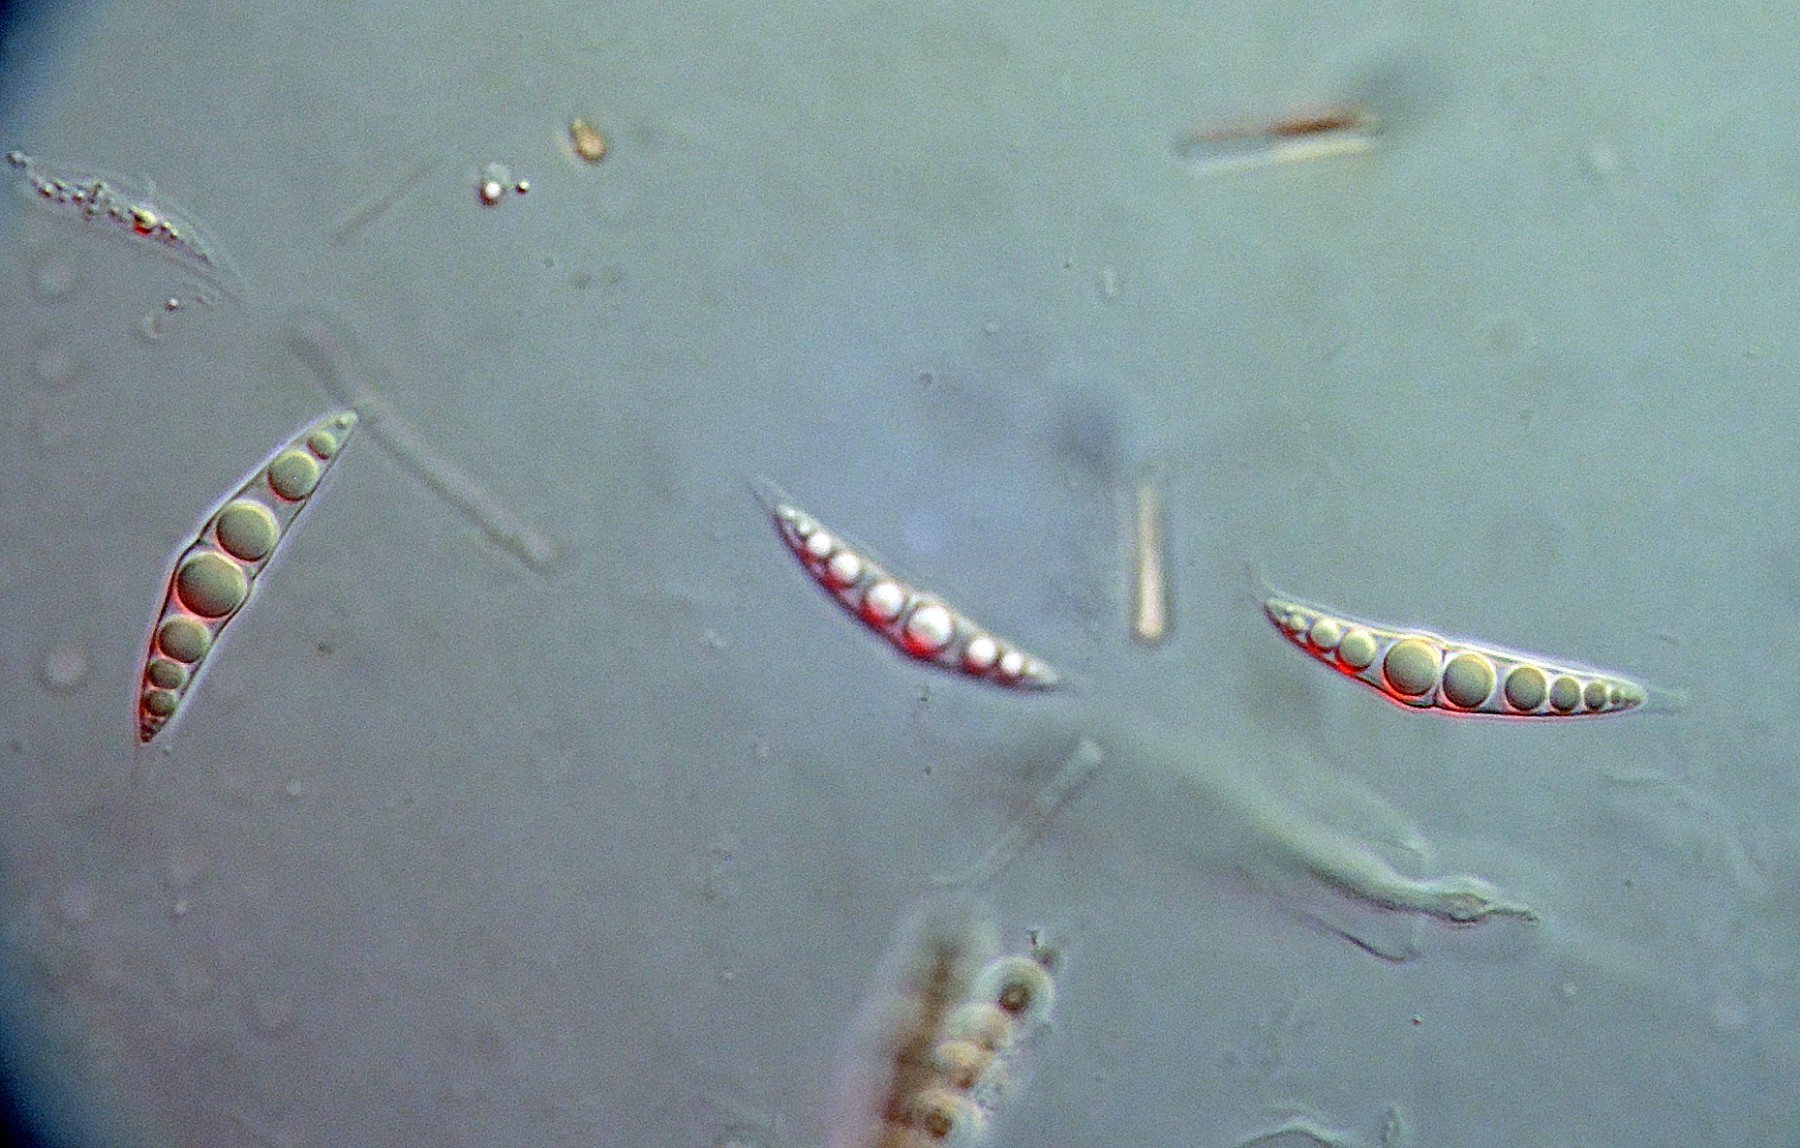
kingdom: Fungi
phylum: Ascomycota
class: Dothideomycetes
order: Pleosporales
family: Lophiostomataceae
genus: Lophiostoma
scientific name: Lophiostoma macrostomum
